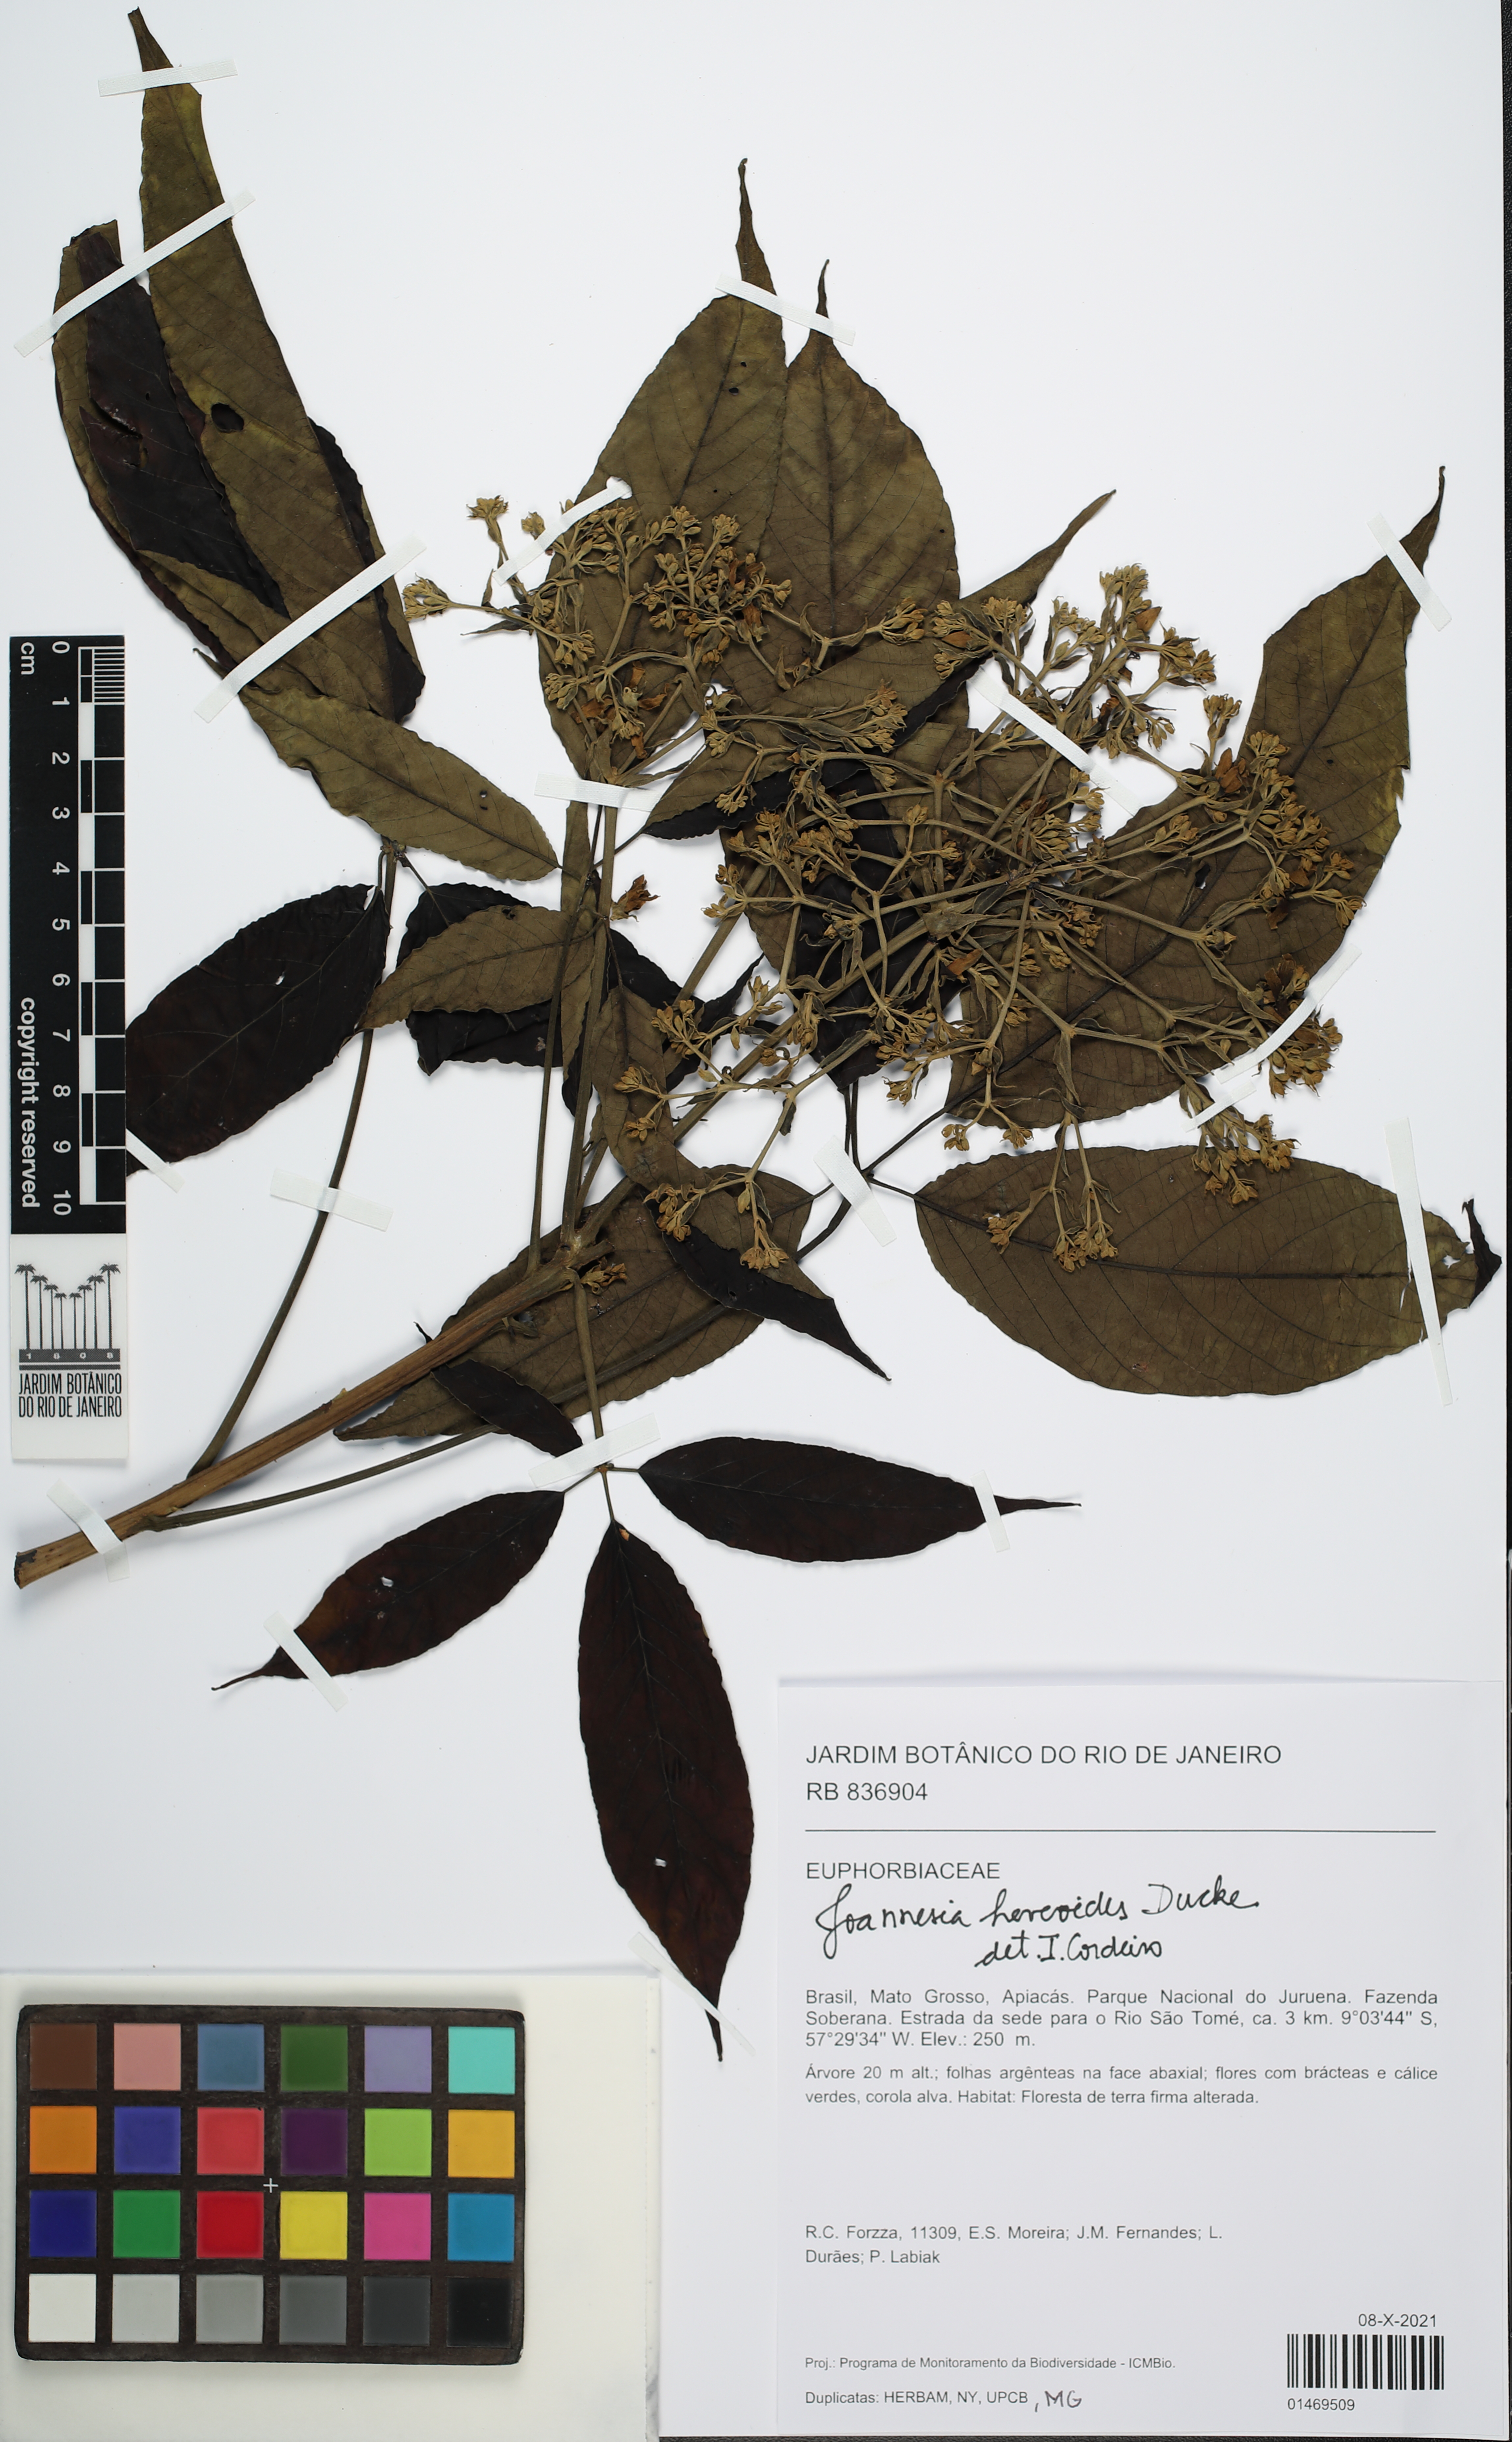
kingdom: Plantae
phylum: Tracheophyta
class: Magnoliopsida
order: Malpighiales
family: Euphorbiaceae
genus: Joannesia
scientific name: Joannesia heveoides
